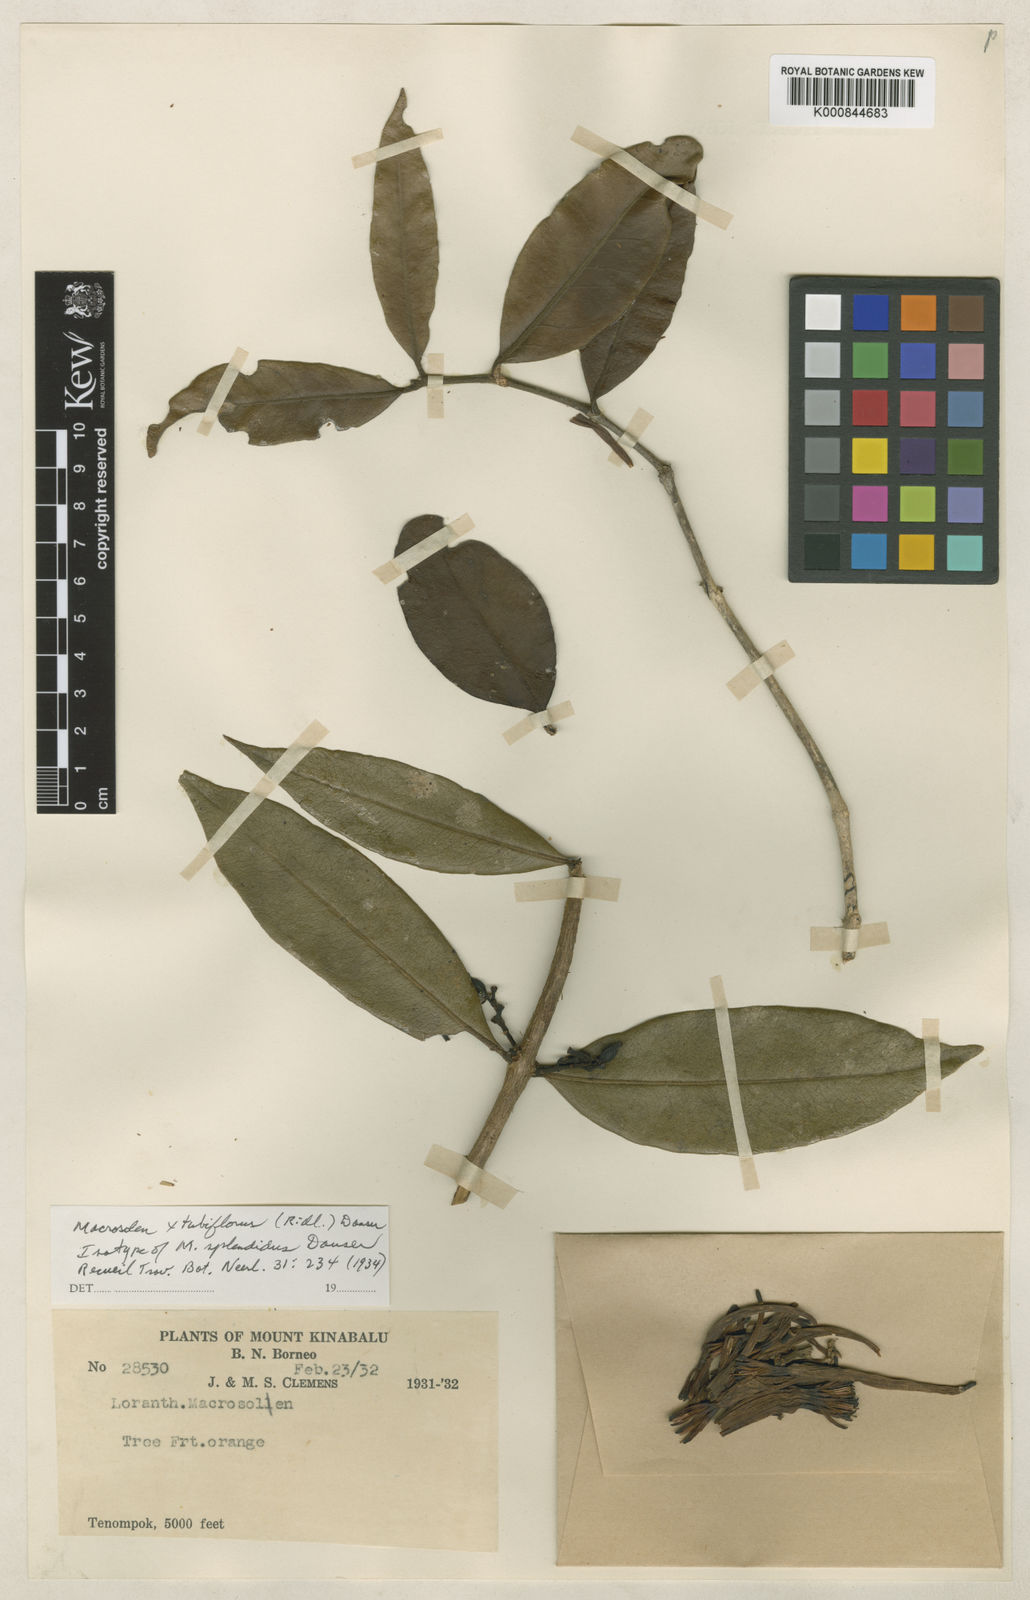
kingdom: Plantae
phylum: Tracheophyta
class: Magnoliopsida
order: Santalales
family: Loranthaceae
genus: Macrosolen
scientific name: Macrosolen tubiflorus
